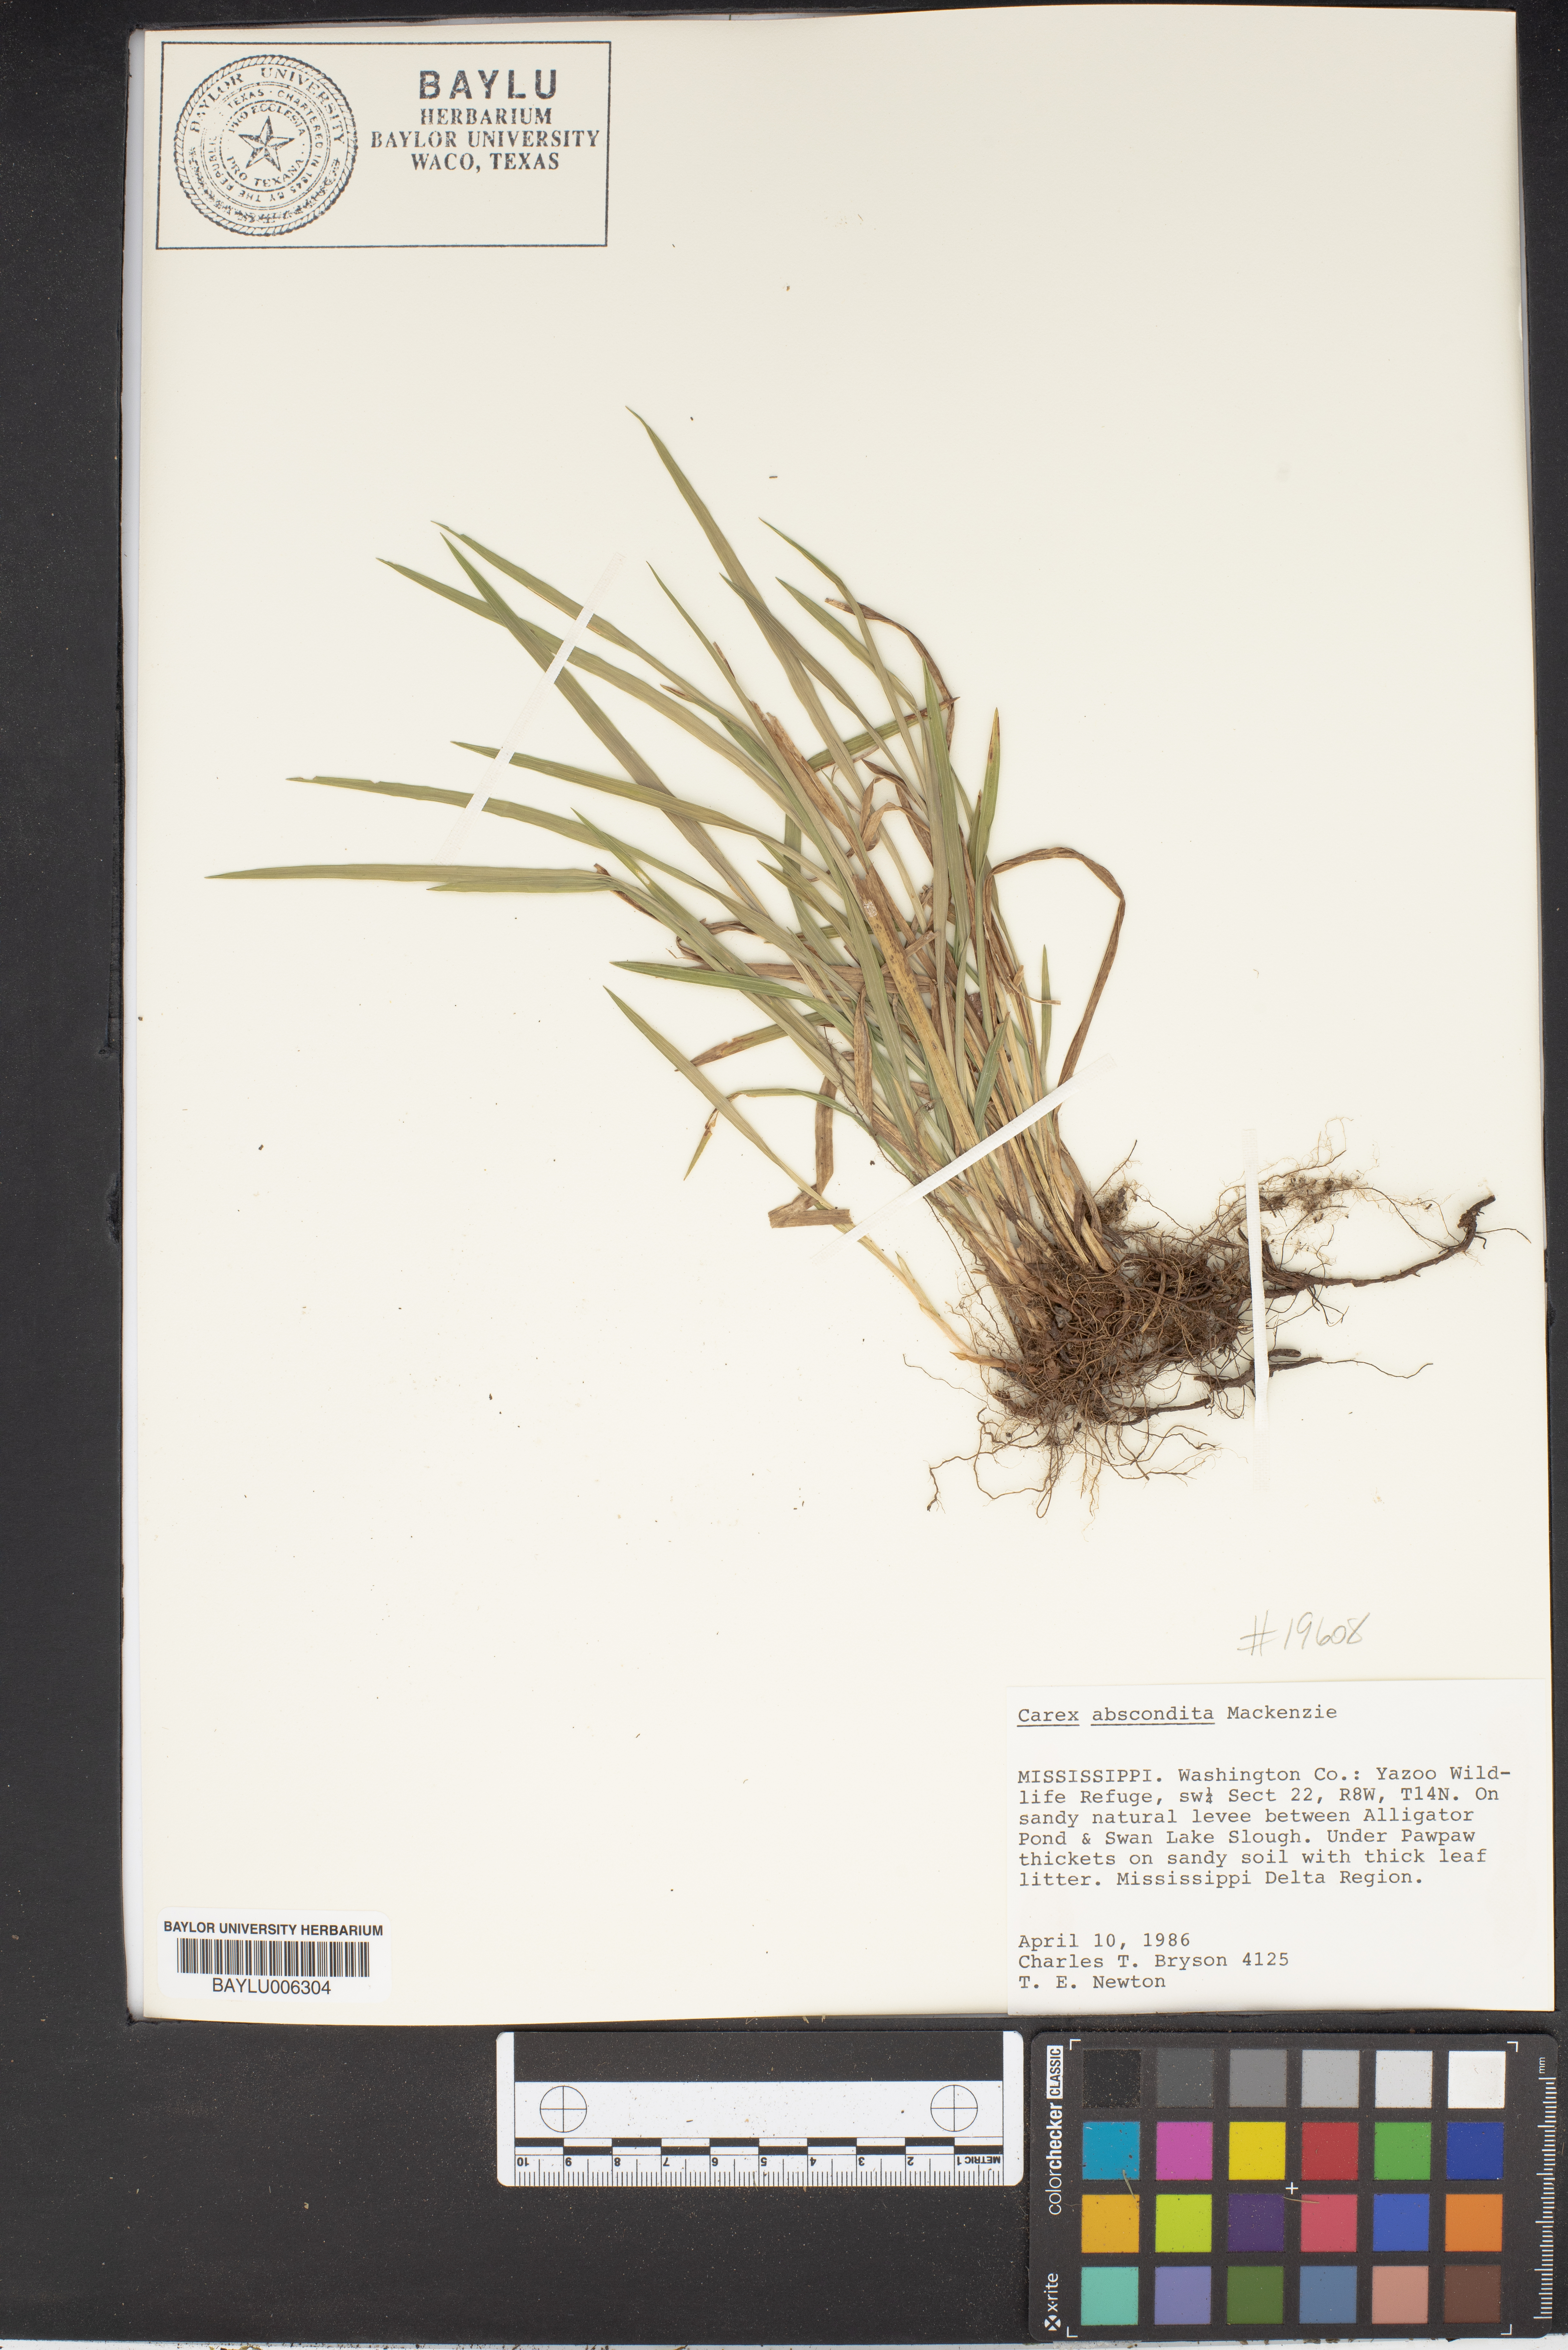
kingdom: Plantae
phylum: Tracheophyta
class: Liliopsida
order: Poales
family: Cyperaceae
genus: Carex
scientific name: Carex abscondita
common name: Thicket sedge
